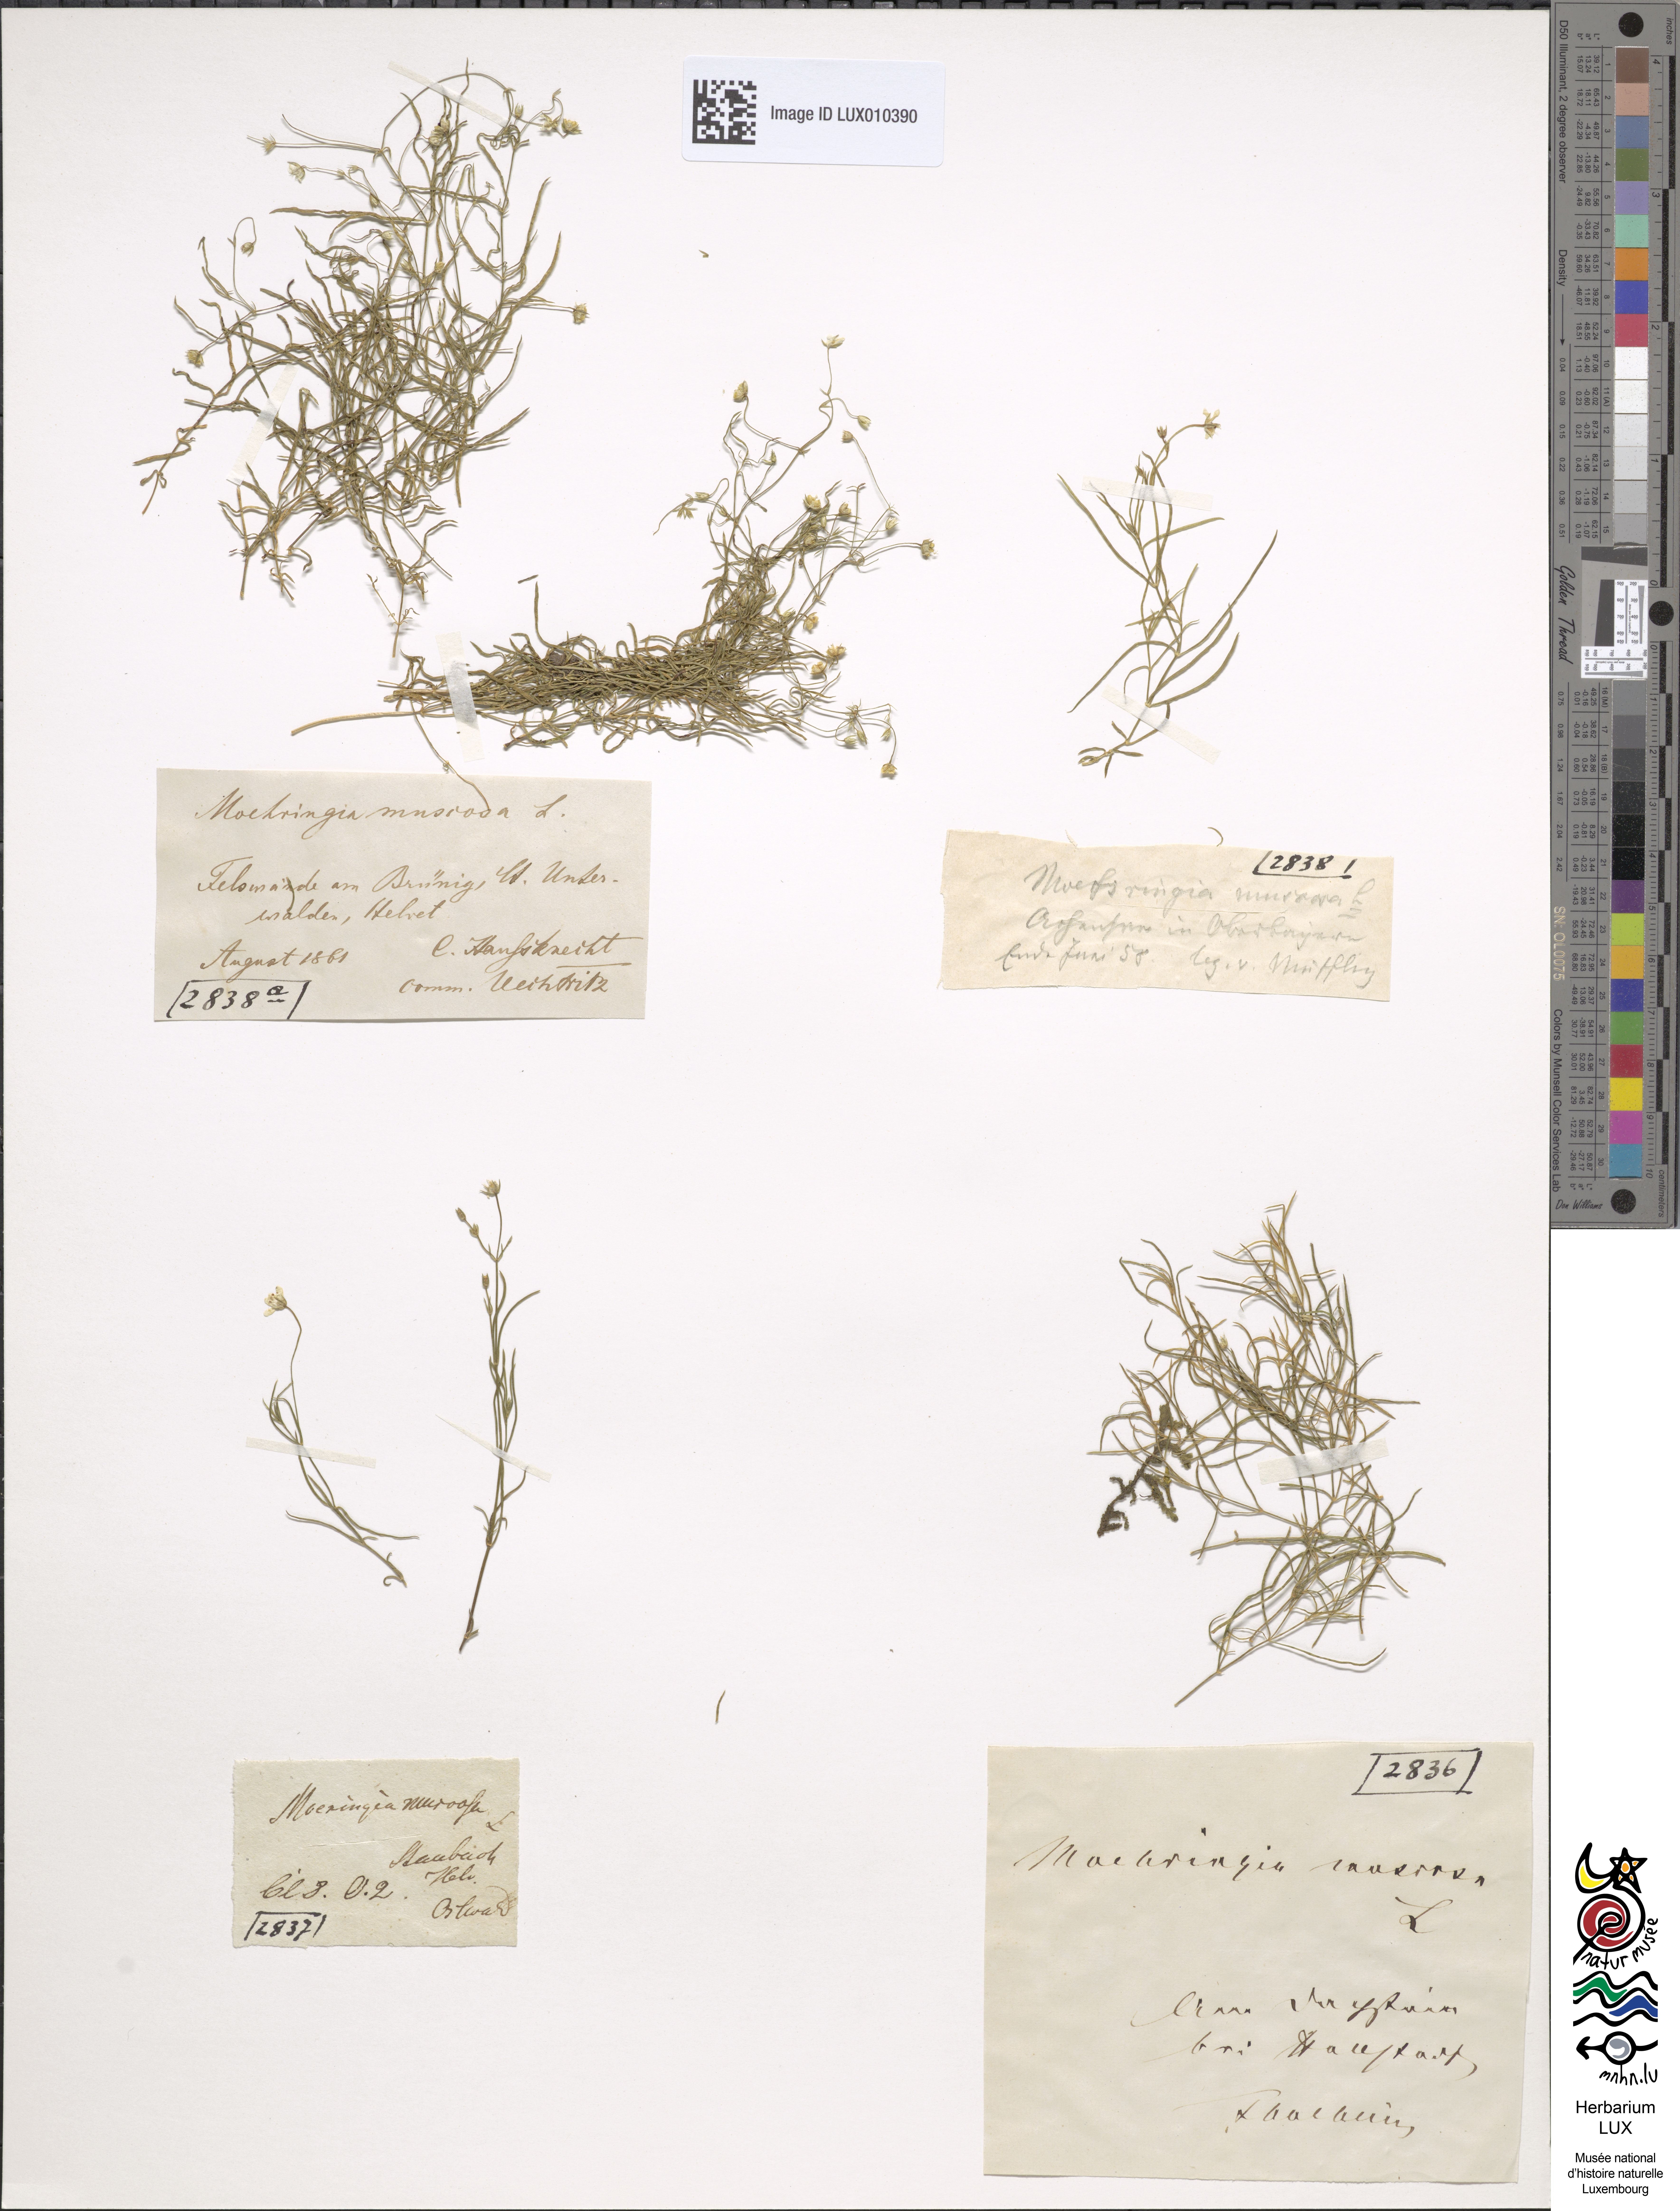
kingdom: Plantae
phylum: Tracheophyta
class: Magnoliopsida
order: Caryophyllales
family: Caryophyllaceae
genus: Moehringia
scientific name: Moehringia muscosa
